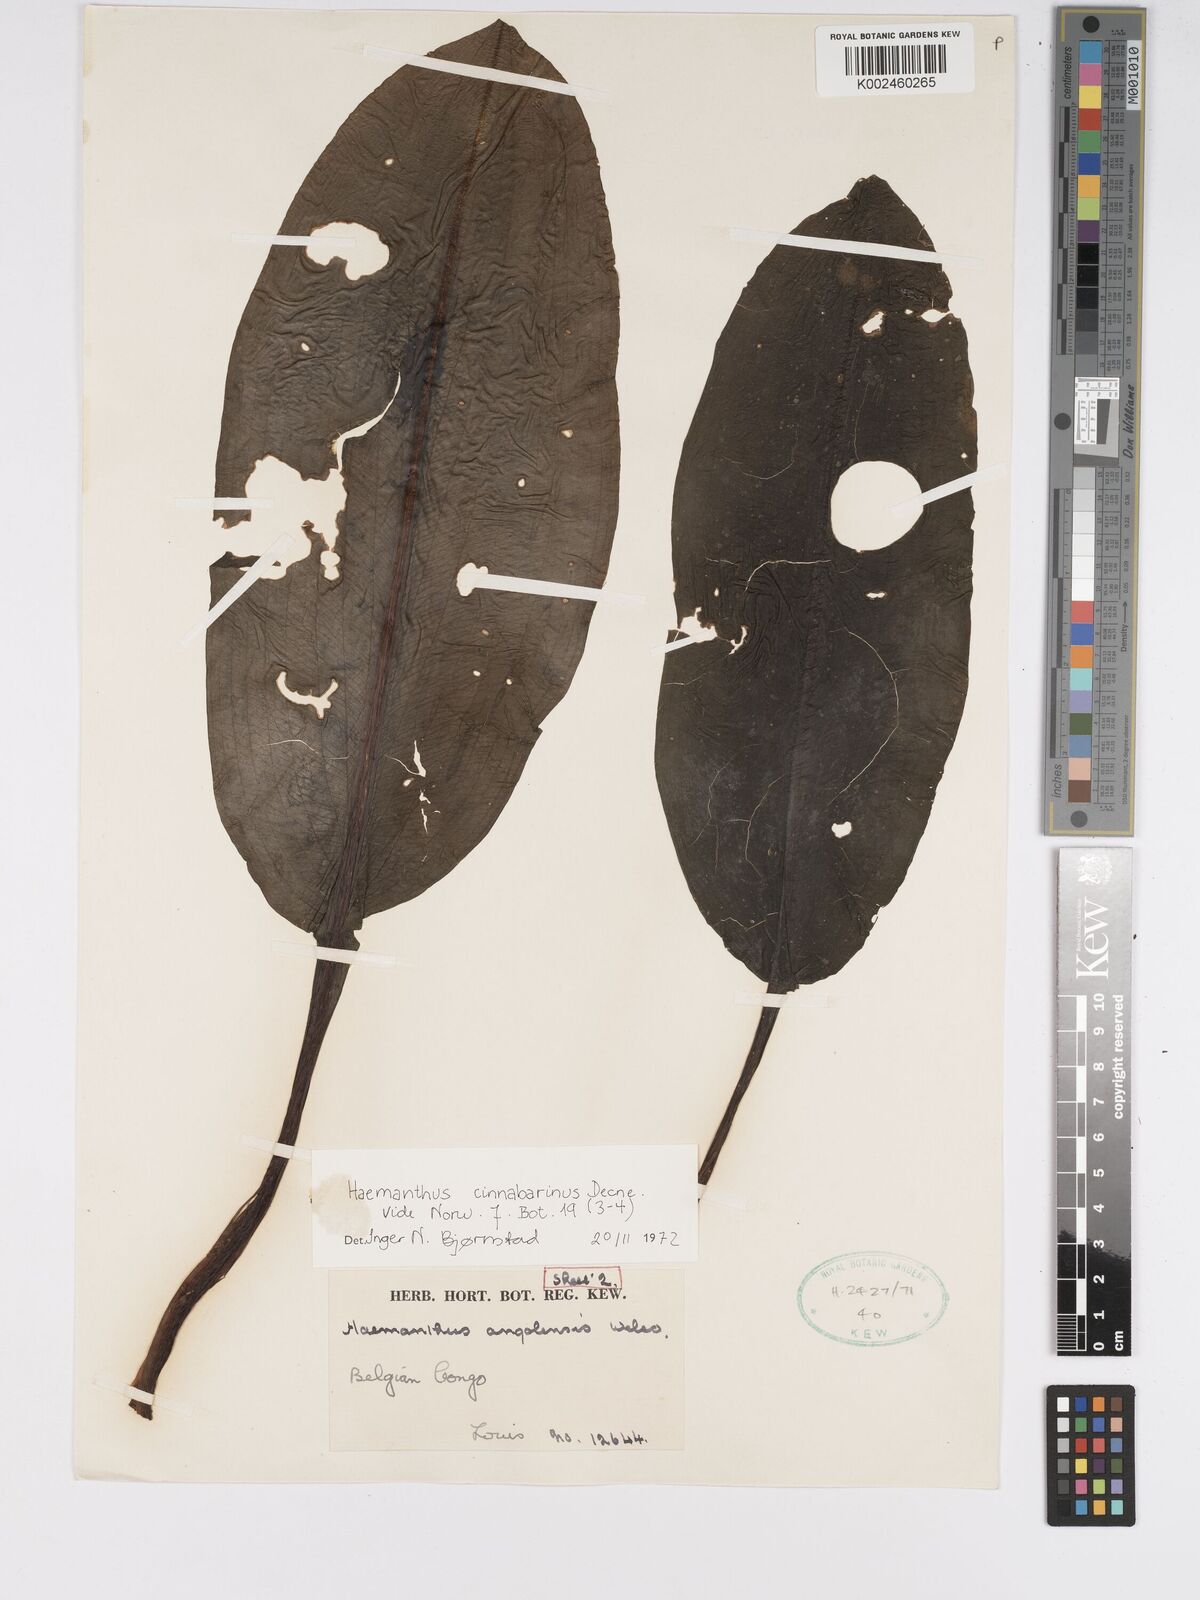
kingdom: Plantae
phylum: Tracheophyta
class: Liliopsida
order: Asparagales
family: Amaryllidaceae
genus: Scadoxus
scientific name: Scadoxus cinnabarinus
